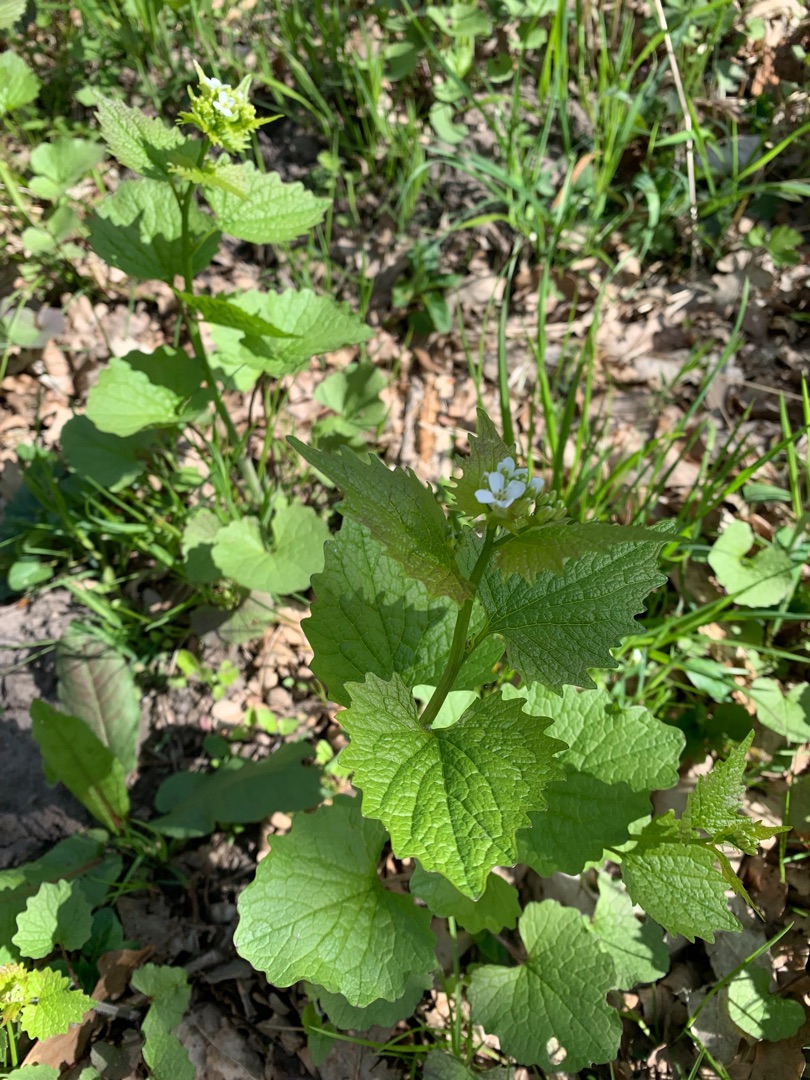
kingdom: Plantae
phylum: Tracheophyta
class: Magnoliopsida
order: Brassicales
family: Brassicaceae
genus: Alliaria
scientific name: Alliaria petiolata
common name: Løgkarse
